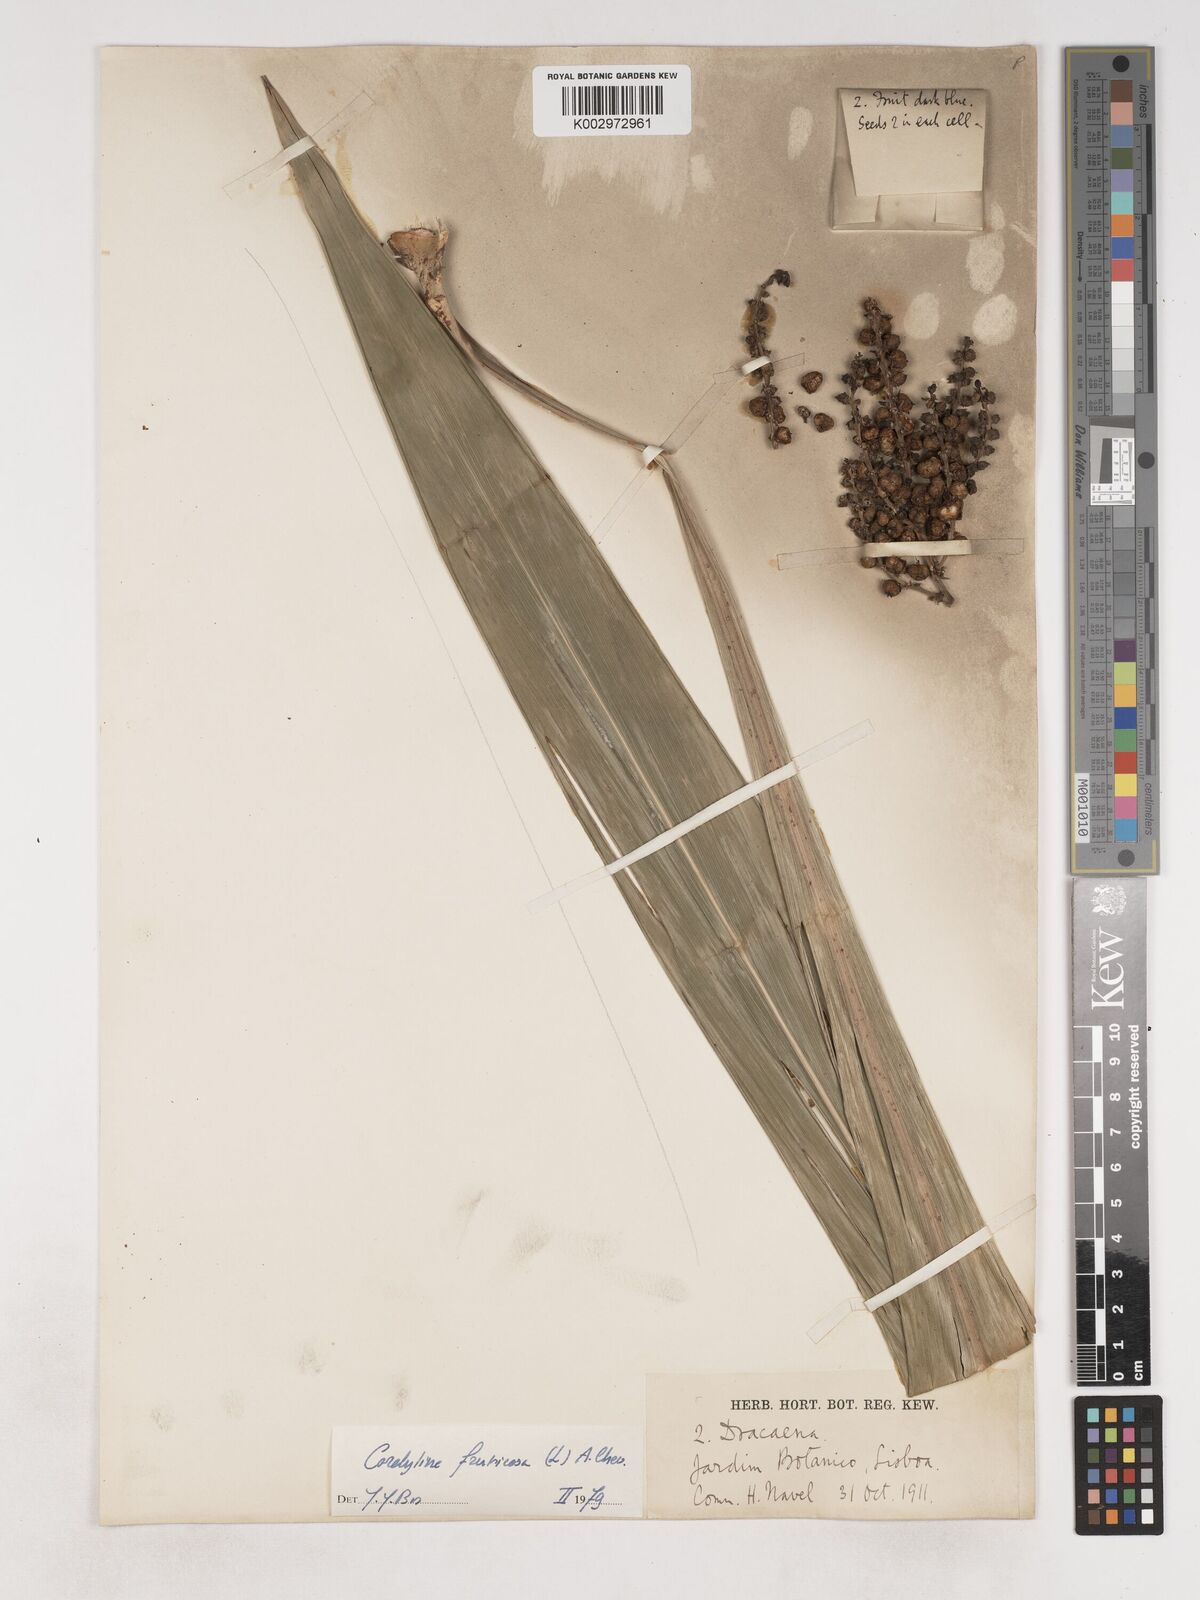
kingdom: Plantae
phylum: Tracheophyta
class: Liliopsida
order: Asparagales
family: Asparagaceae
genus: Cordyline
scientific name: Cordyline fruticosa
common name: Good-luck-plant
